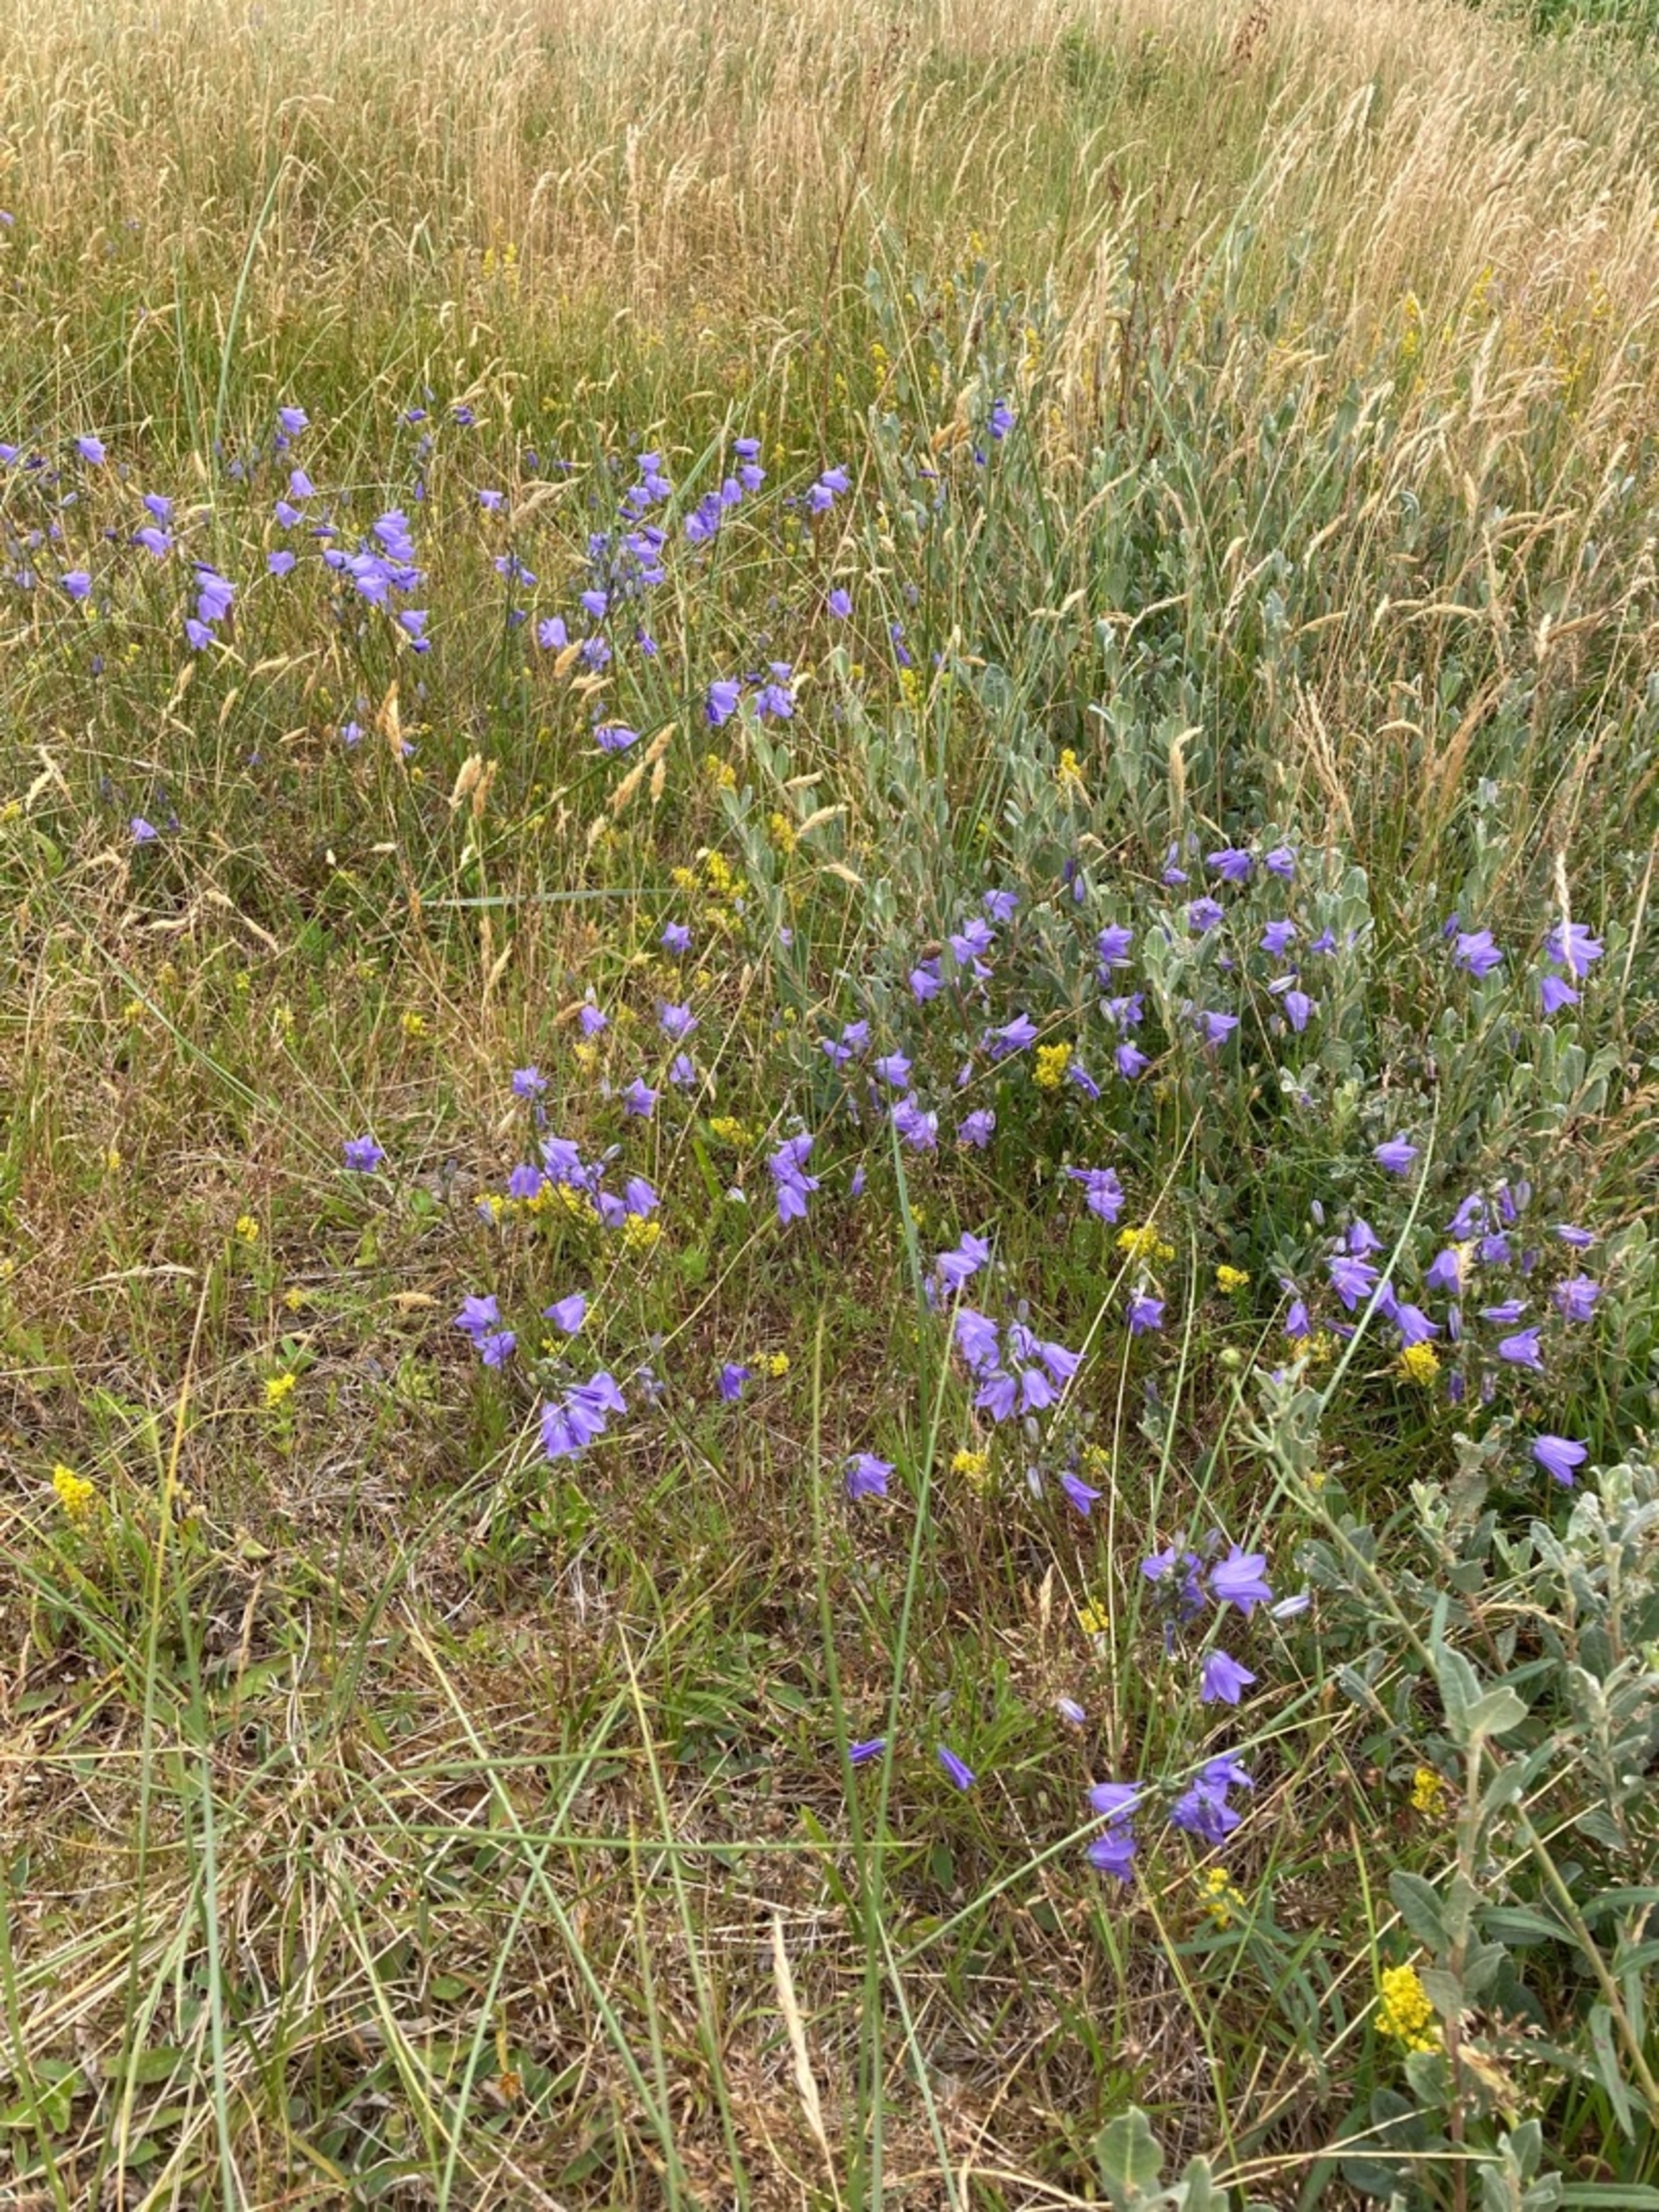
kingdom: Plantae
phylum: Tracheophyta
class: Magnoliopsida
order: Asterales
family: Campanulaceae
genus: Campanula
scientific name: Campanula rotundifolia
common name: Liden klokke
